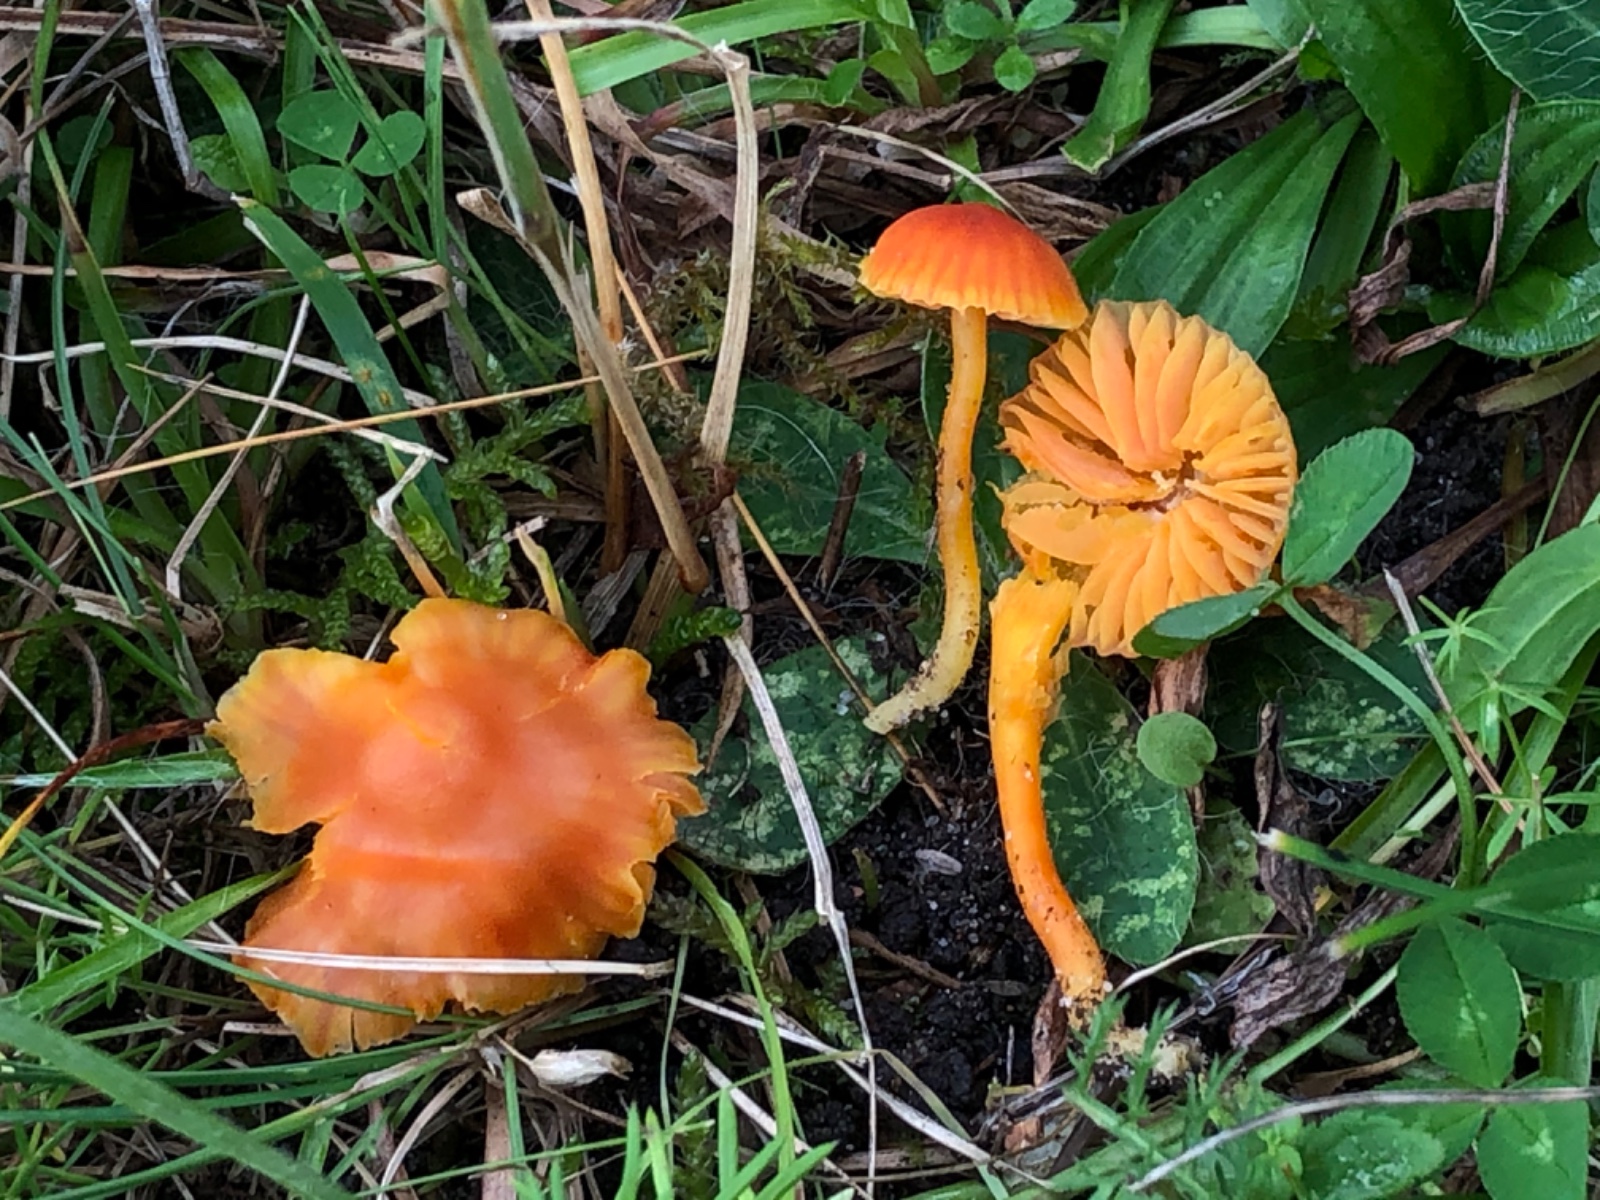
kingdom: Fungi
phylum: Basidiomycota
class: Agaricomycetes
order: Agaricales
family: Hygrophoraceae
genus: Hygrocybe
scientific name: Hygrocybe
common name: vokshat
